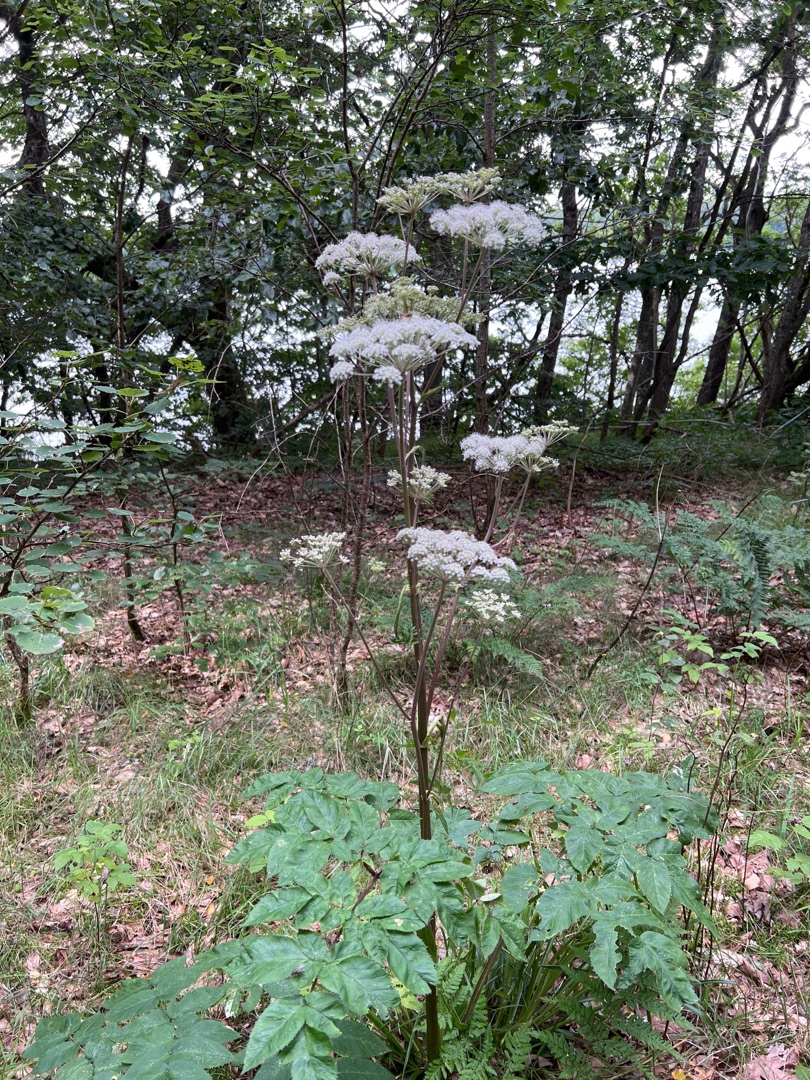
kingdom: Plantae
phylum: Tracheophyta
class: Magnoliopsida
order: Apiales
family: Apiaceae
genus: Angelica
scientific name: Angelica sylvestris
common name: Angelik
